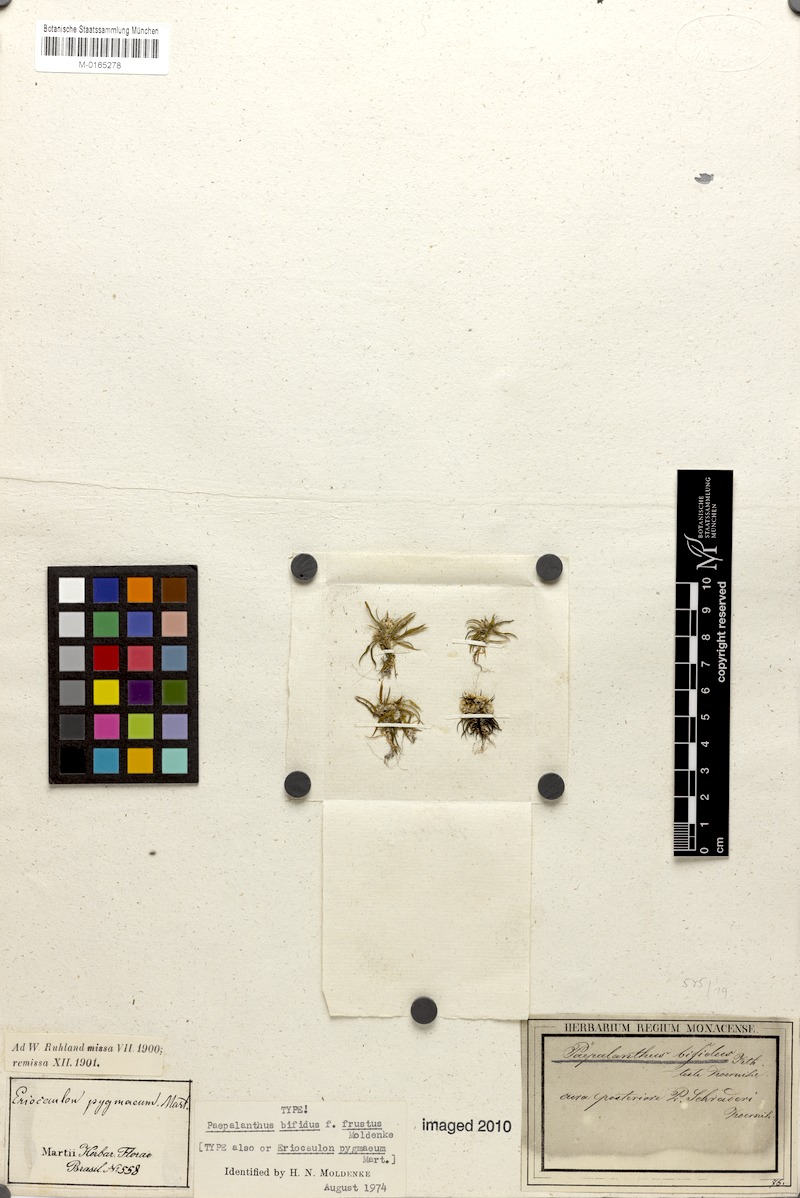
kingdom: Plantae
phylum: Tracheophyta
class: Liliopsida
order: Poales
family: Eriocaulaceae
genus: Paepalanthus
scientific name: Paepalanthus bifidus
